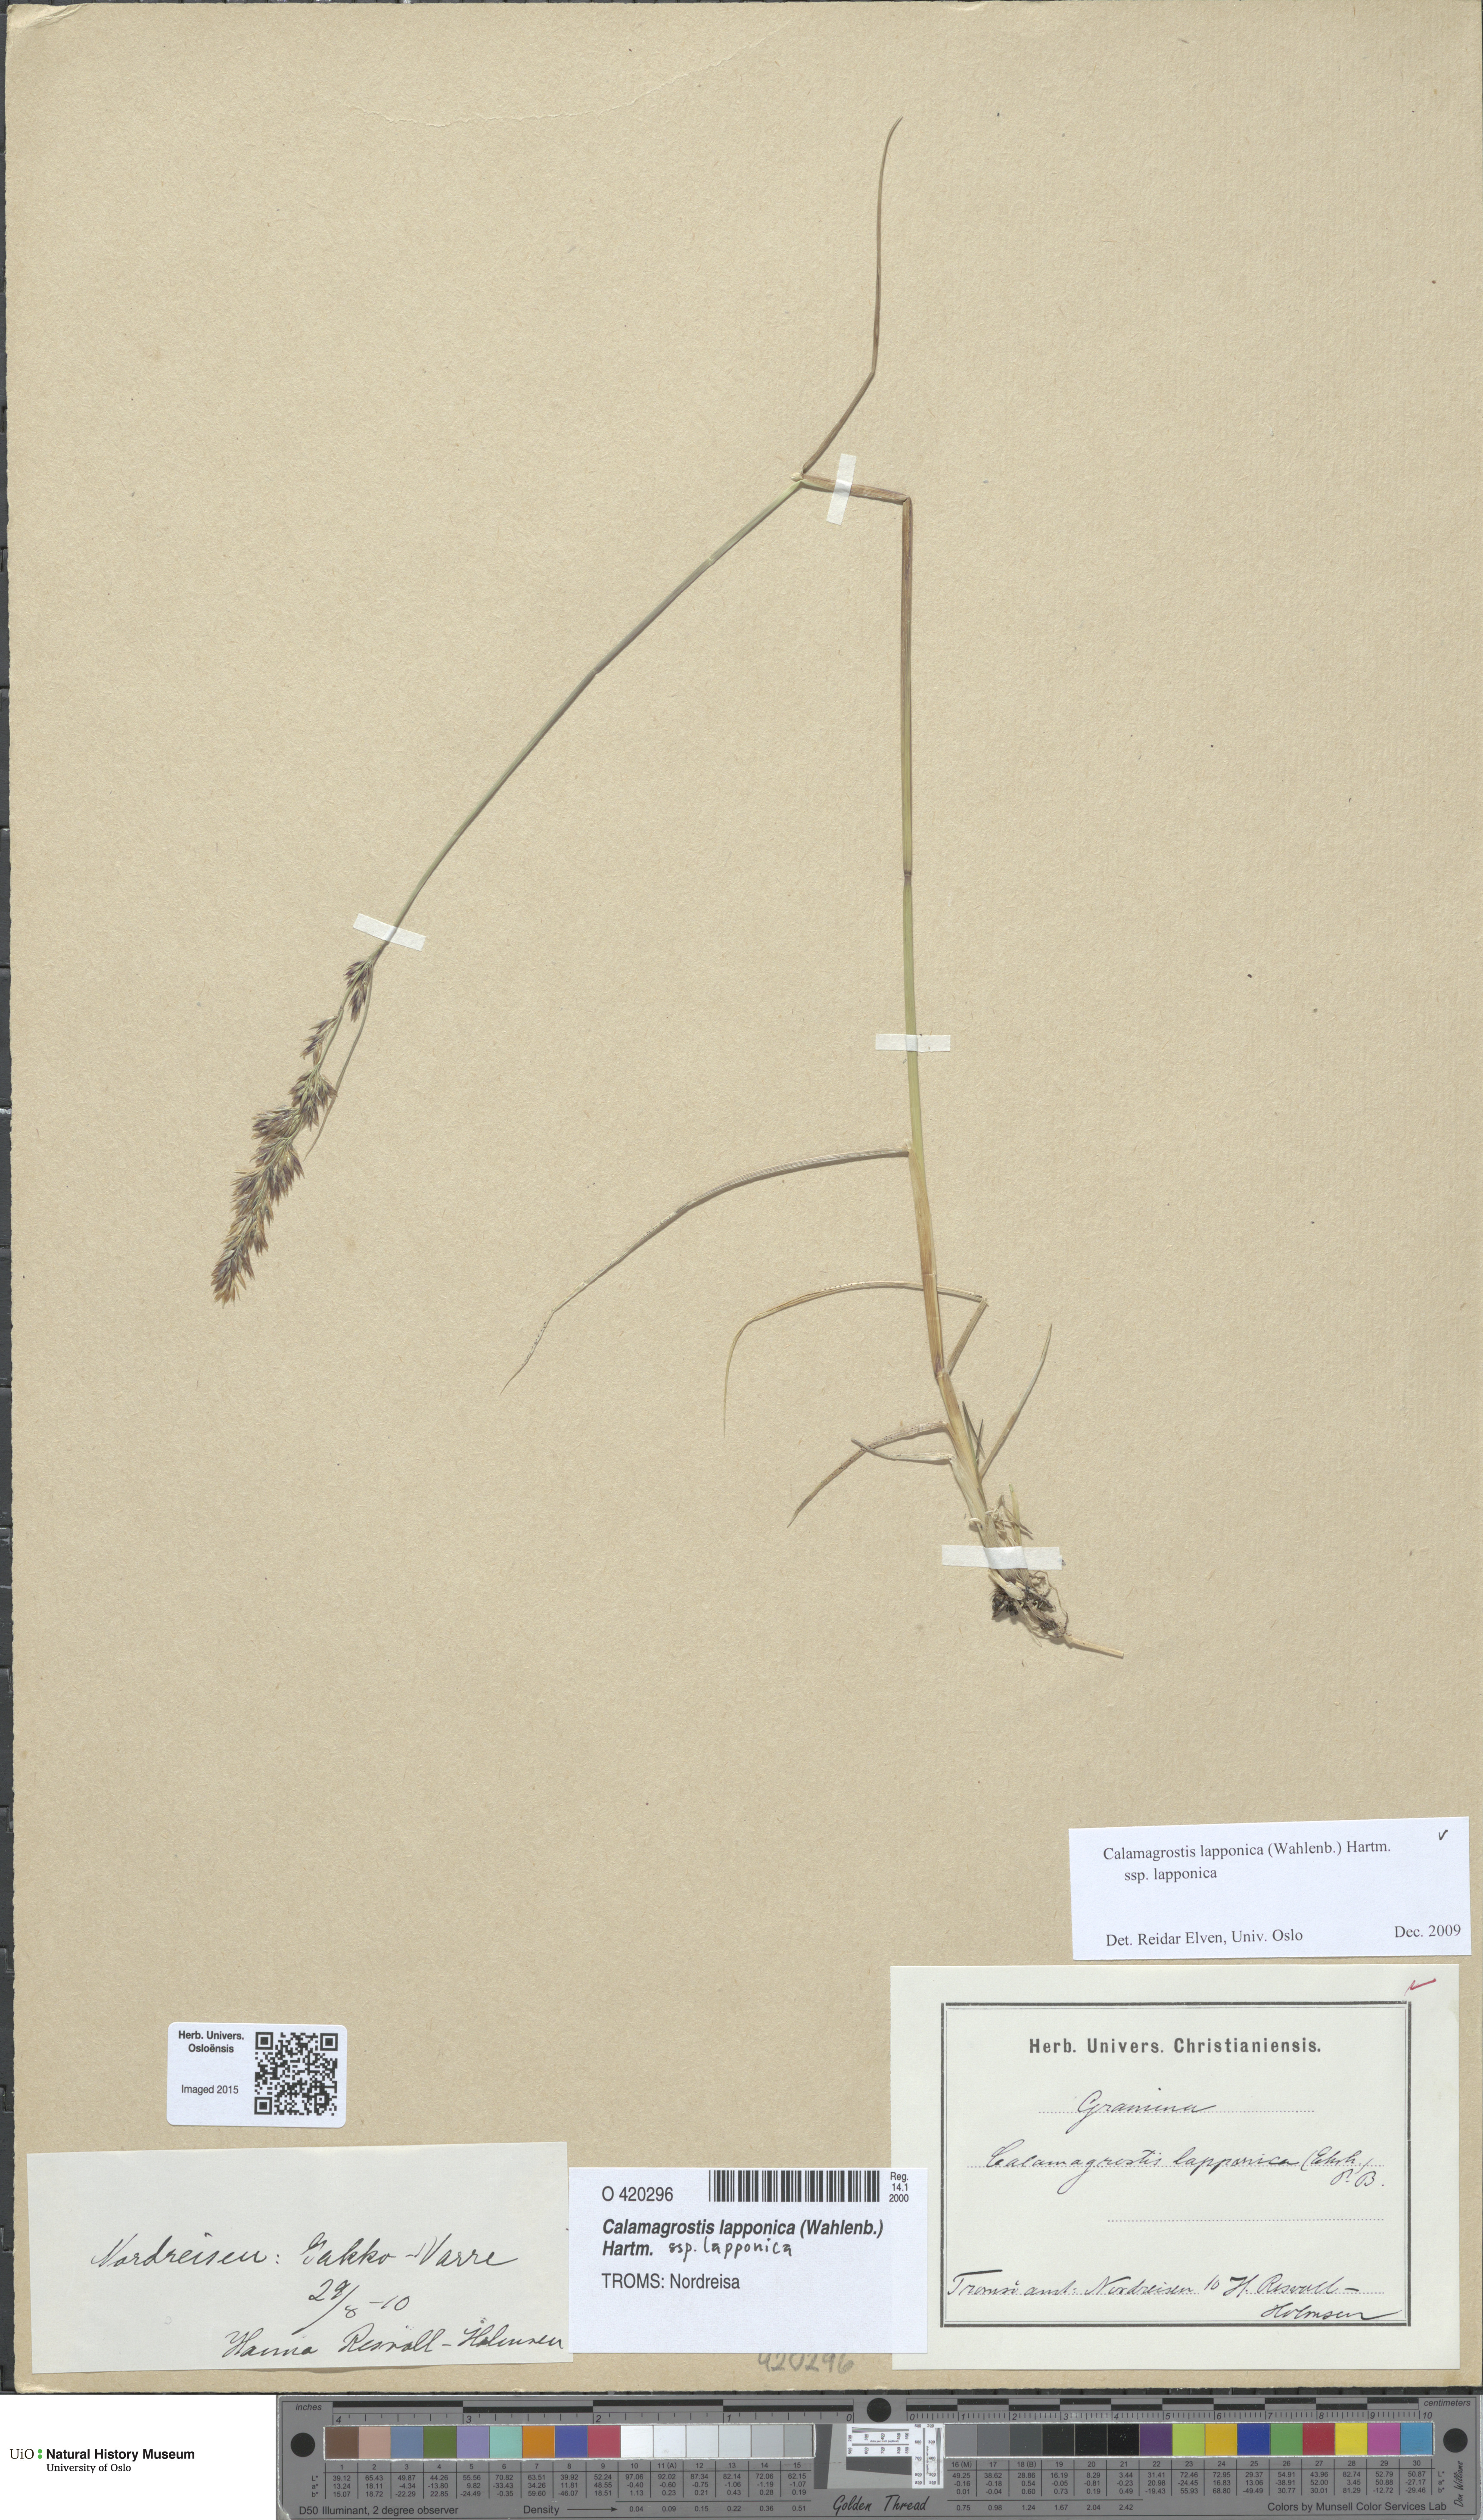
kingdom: Plantae
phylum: Tracheophyta
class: Liliopsida
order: Poales
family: Poaceae
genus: Calamagrostis
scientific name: Calamagrostis lapponica
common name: Lapland reedgrass
